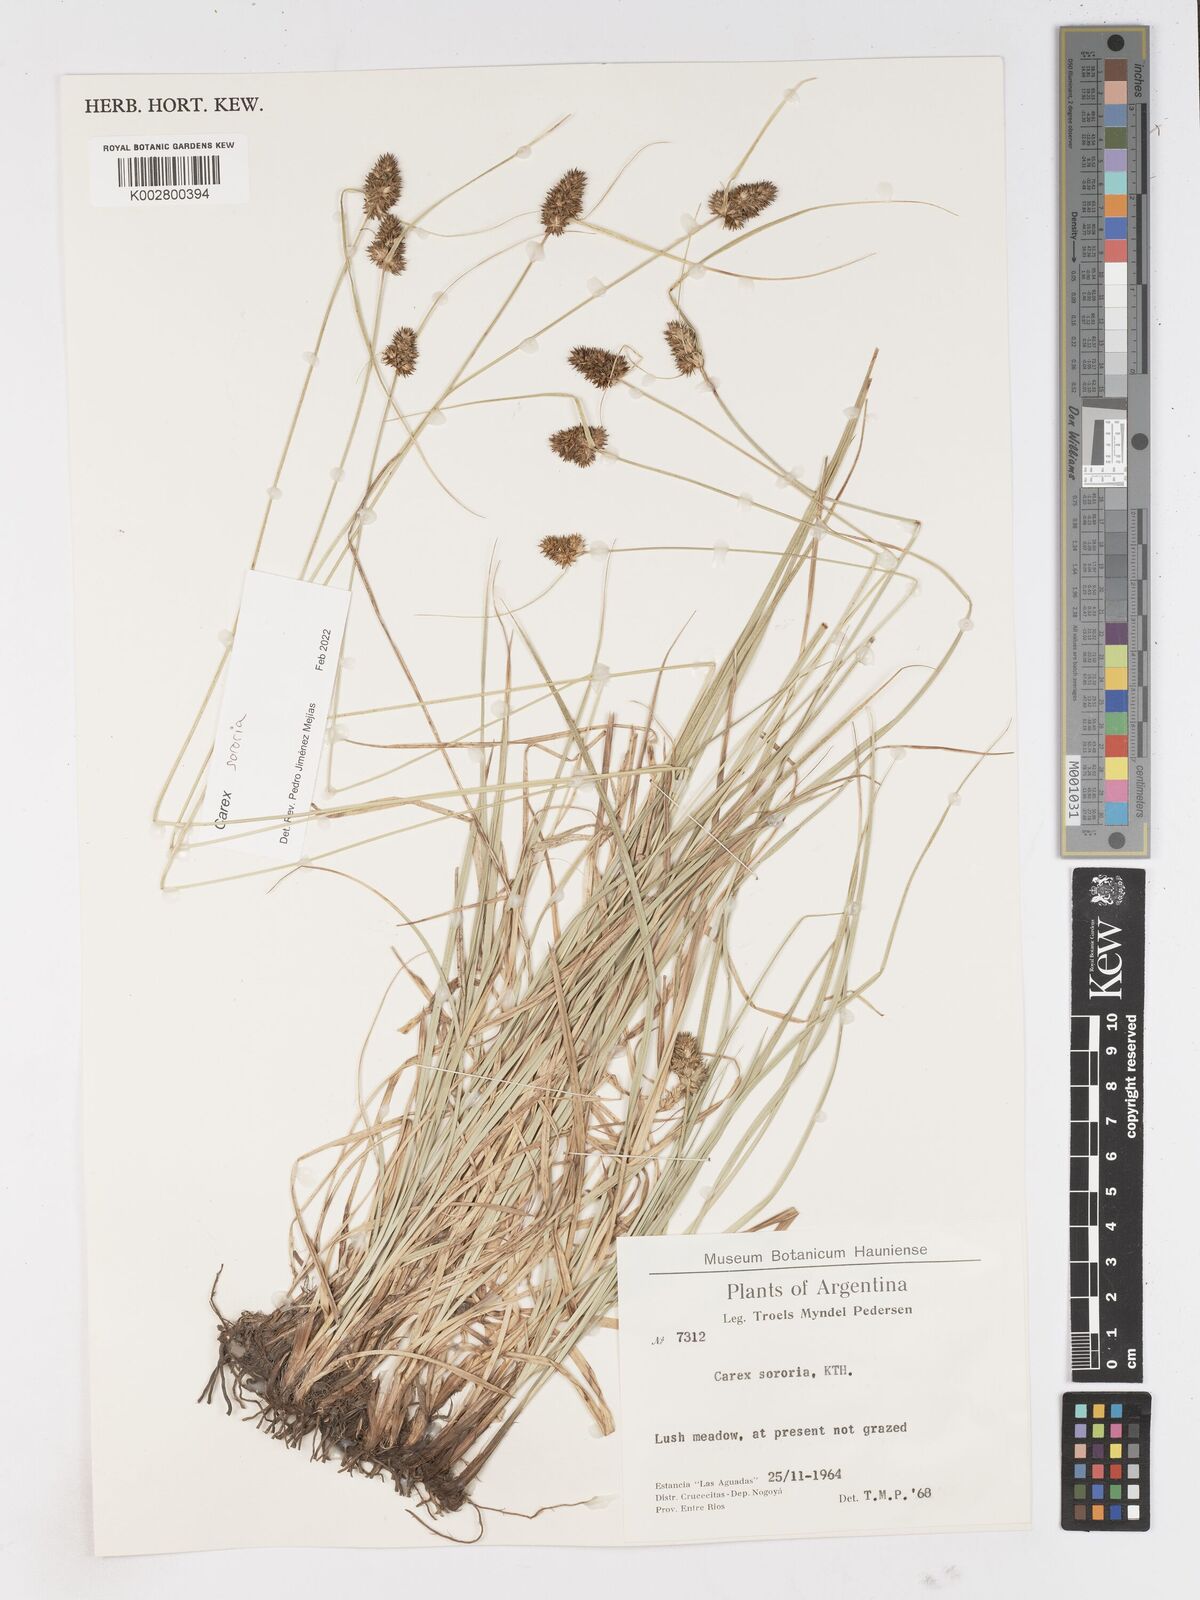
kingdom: Plantae
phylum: Tracheophyta
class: Liliopsida
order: Poales
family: Cyperaceae
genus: Carex
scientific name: Carex sororia
